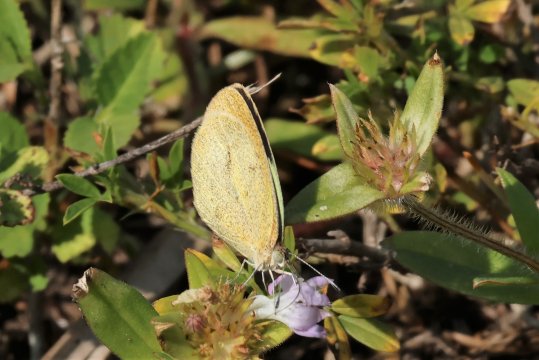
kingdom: Animalia
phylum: Arthropoda
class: Insecta
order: Lepidoptera
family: Pieridae
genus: Eurema
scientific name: Eurema daira
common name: Barred Yellow
